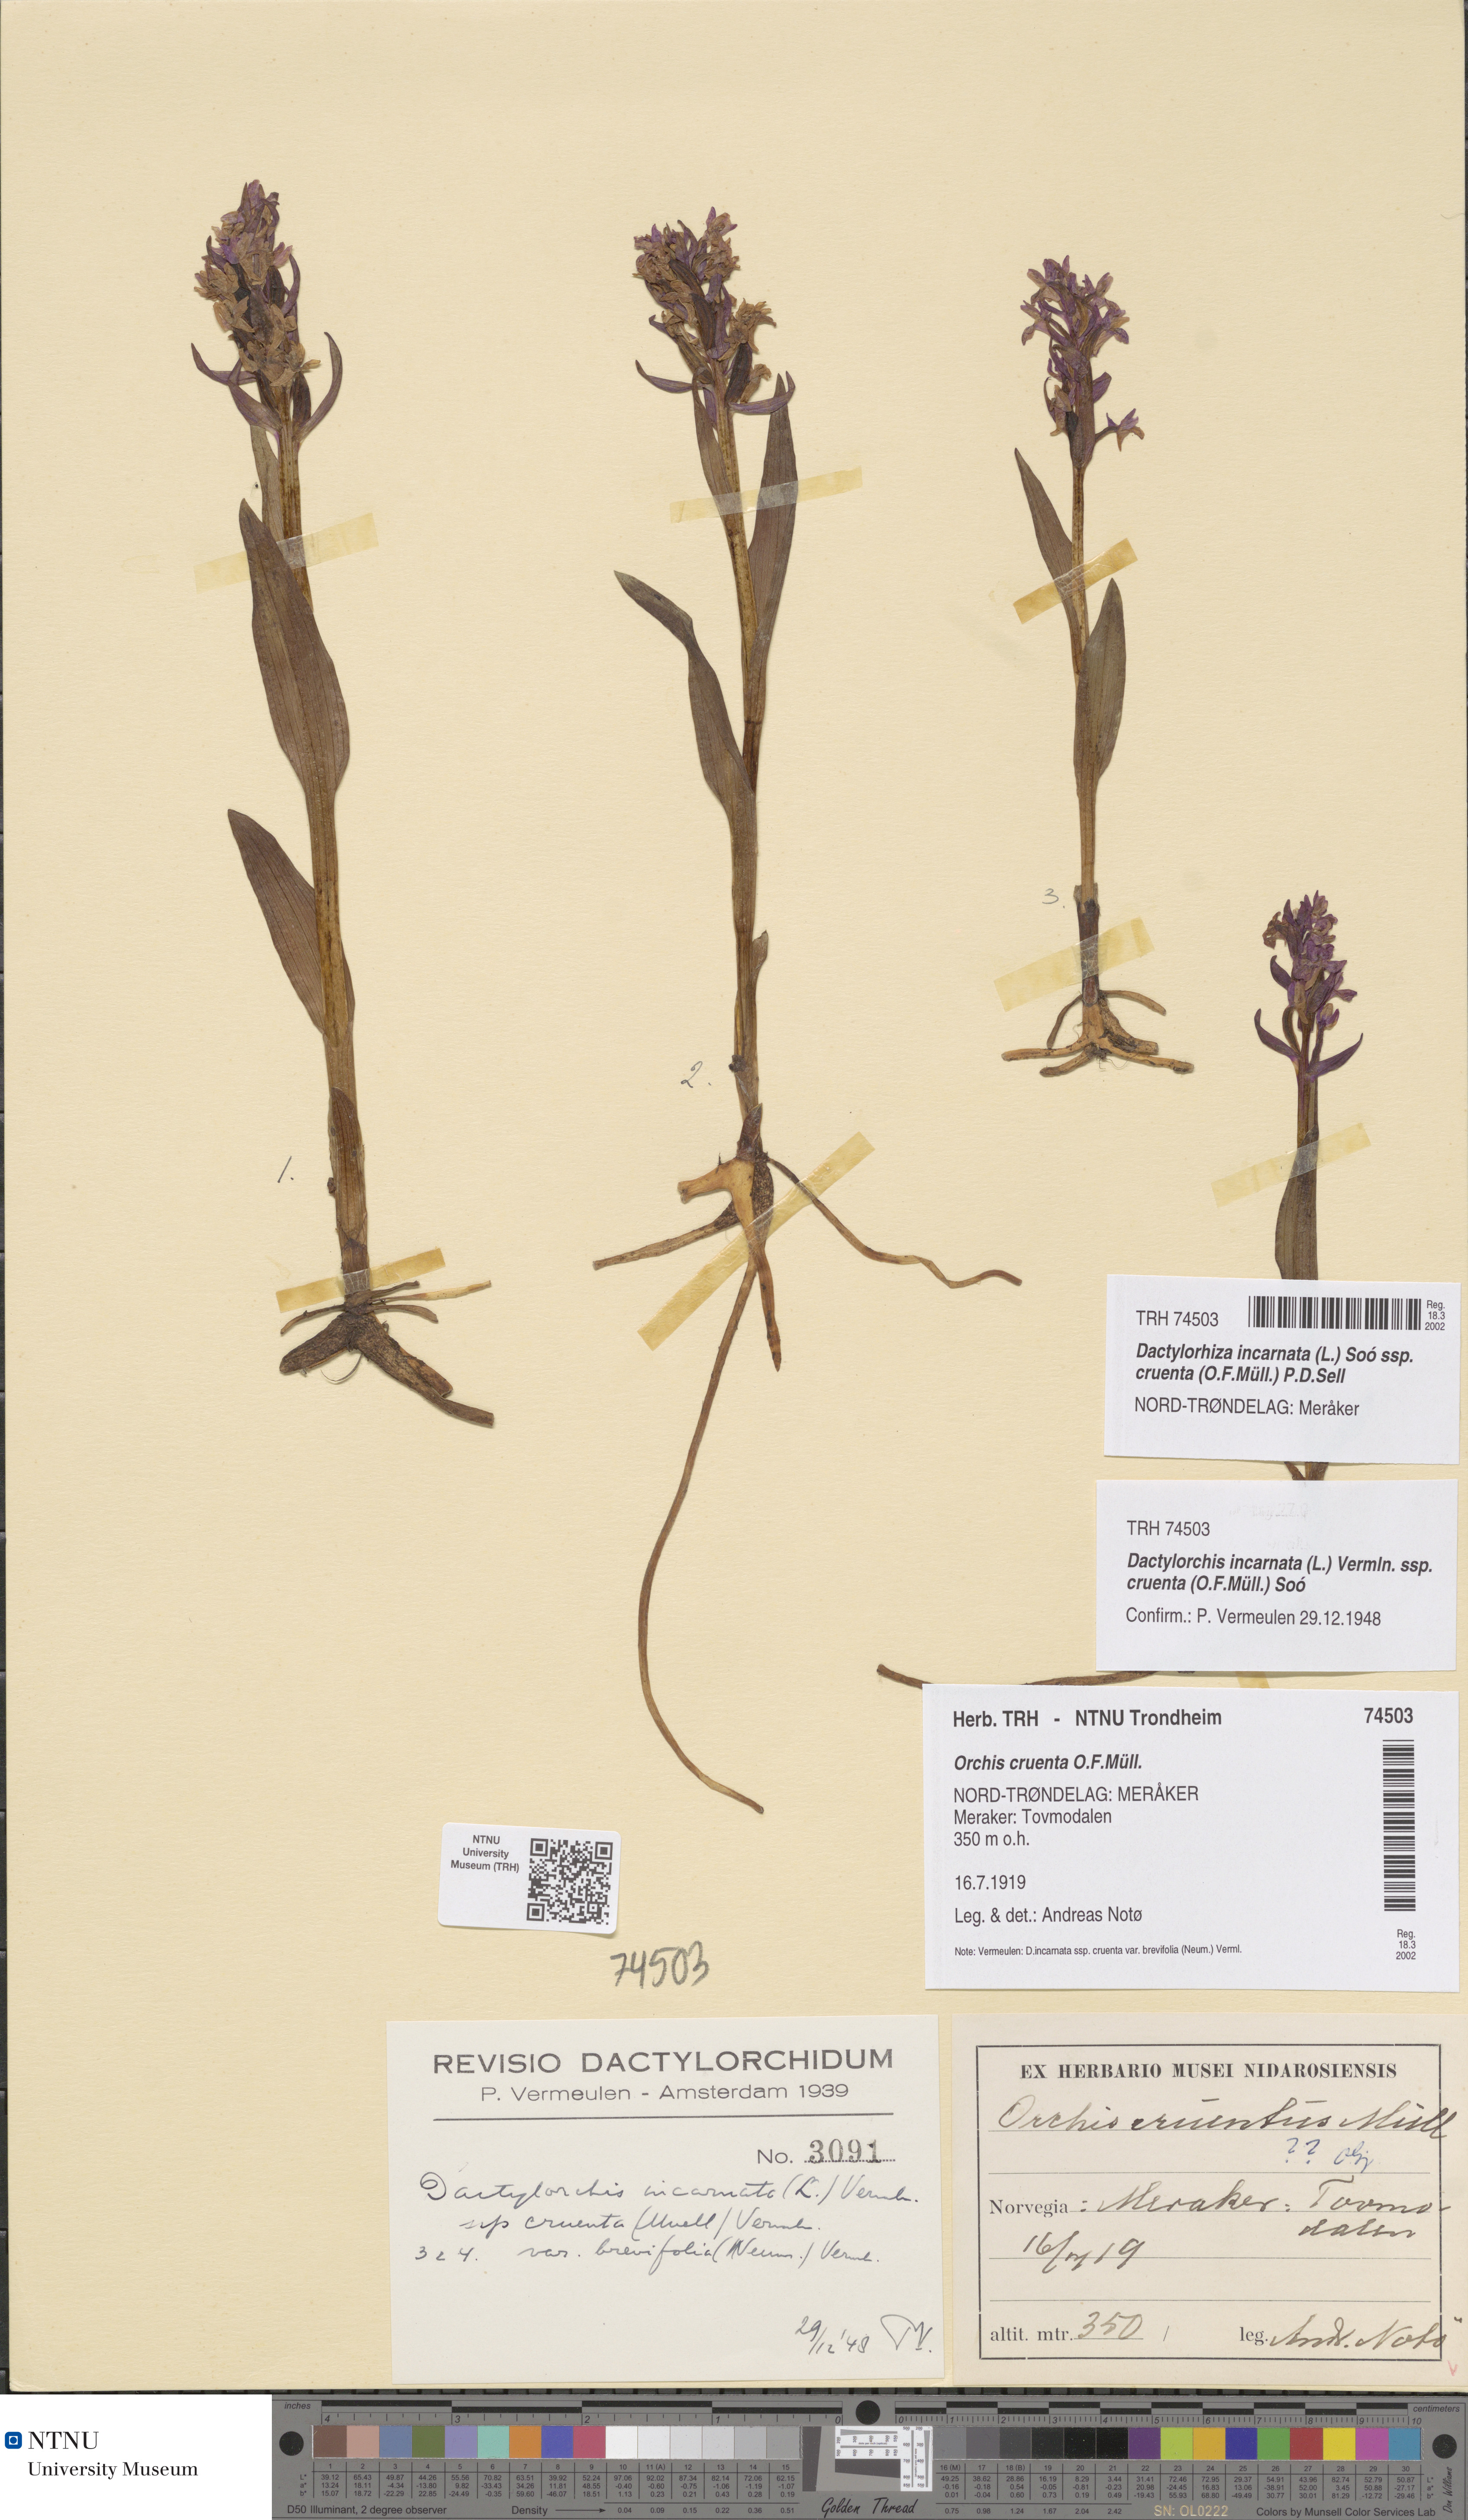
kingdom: Plantae
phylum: Tracheophyta
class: Liliopsida
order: Asparagales
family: Orchidaceae
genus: Dactylorhiza
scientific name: Dactylorhiza incarnata
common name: Early marsh-orchid
